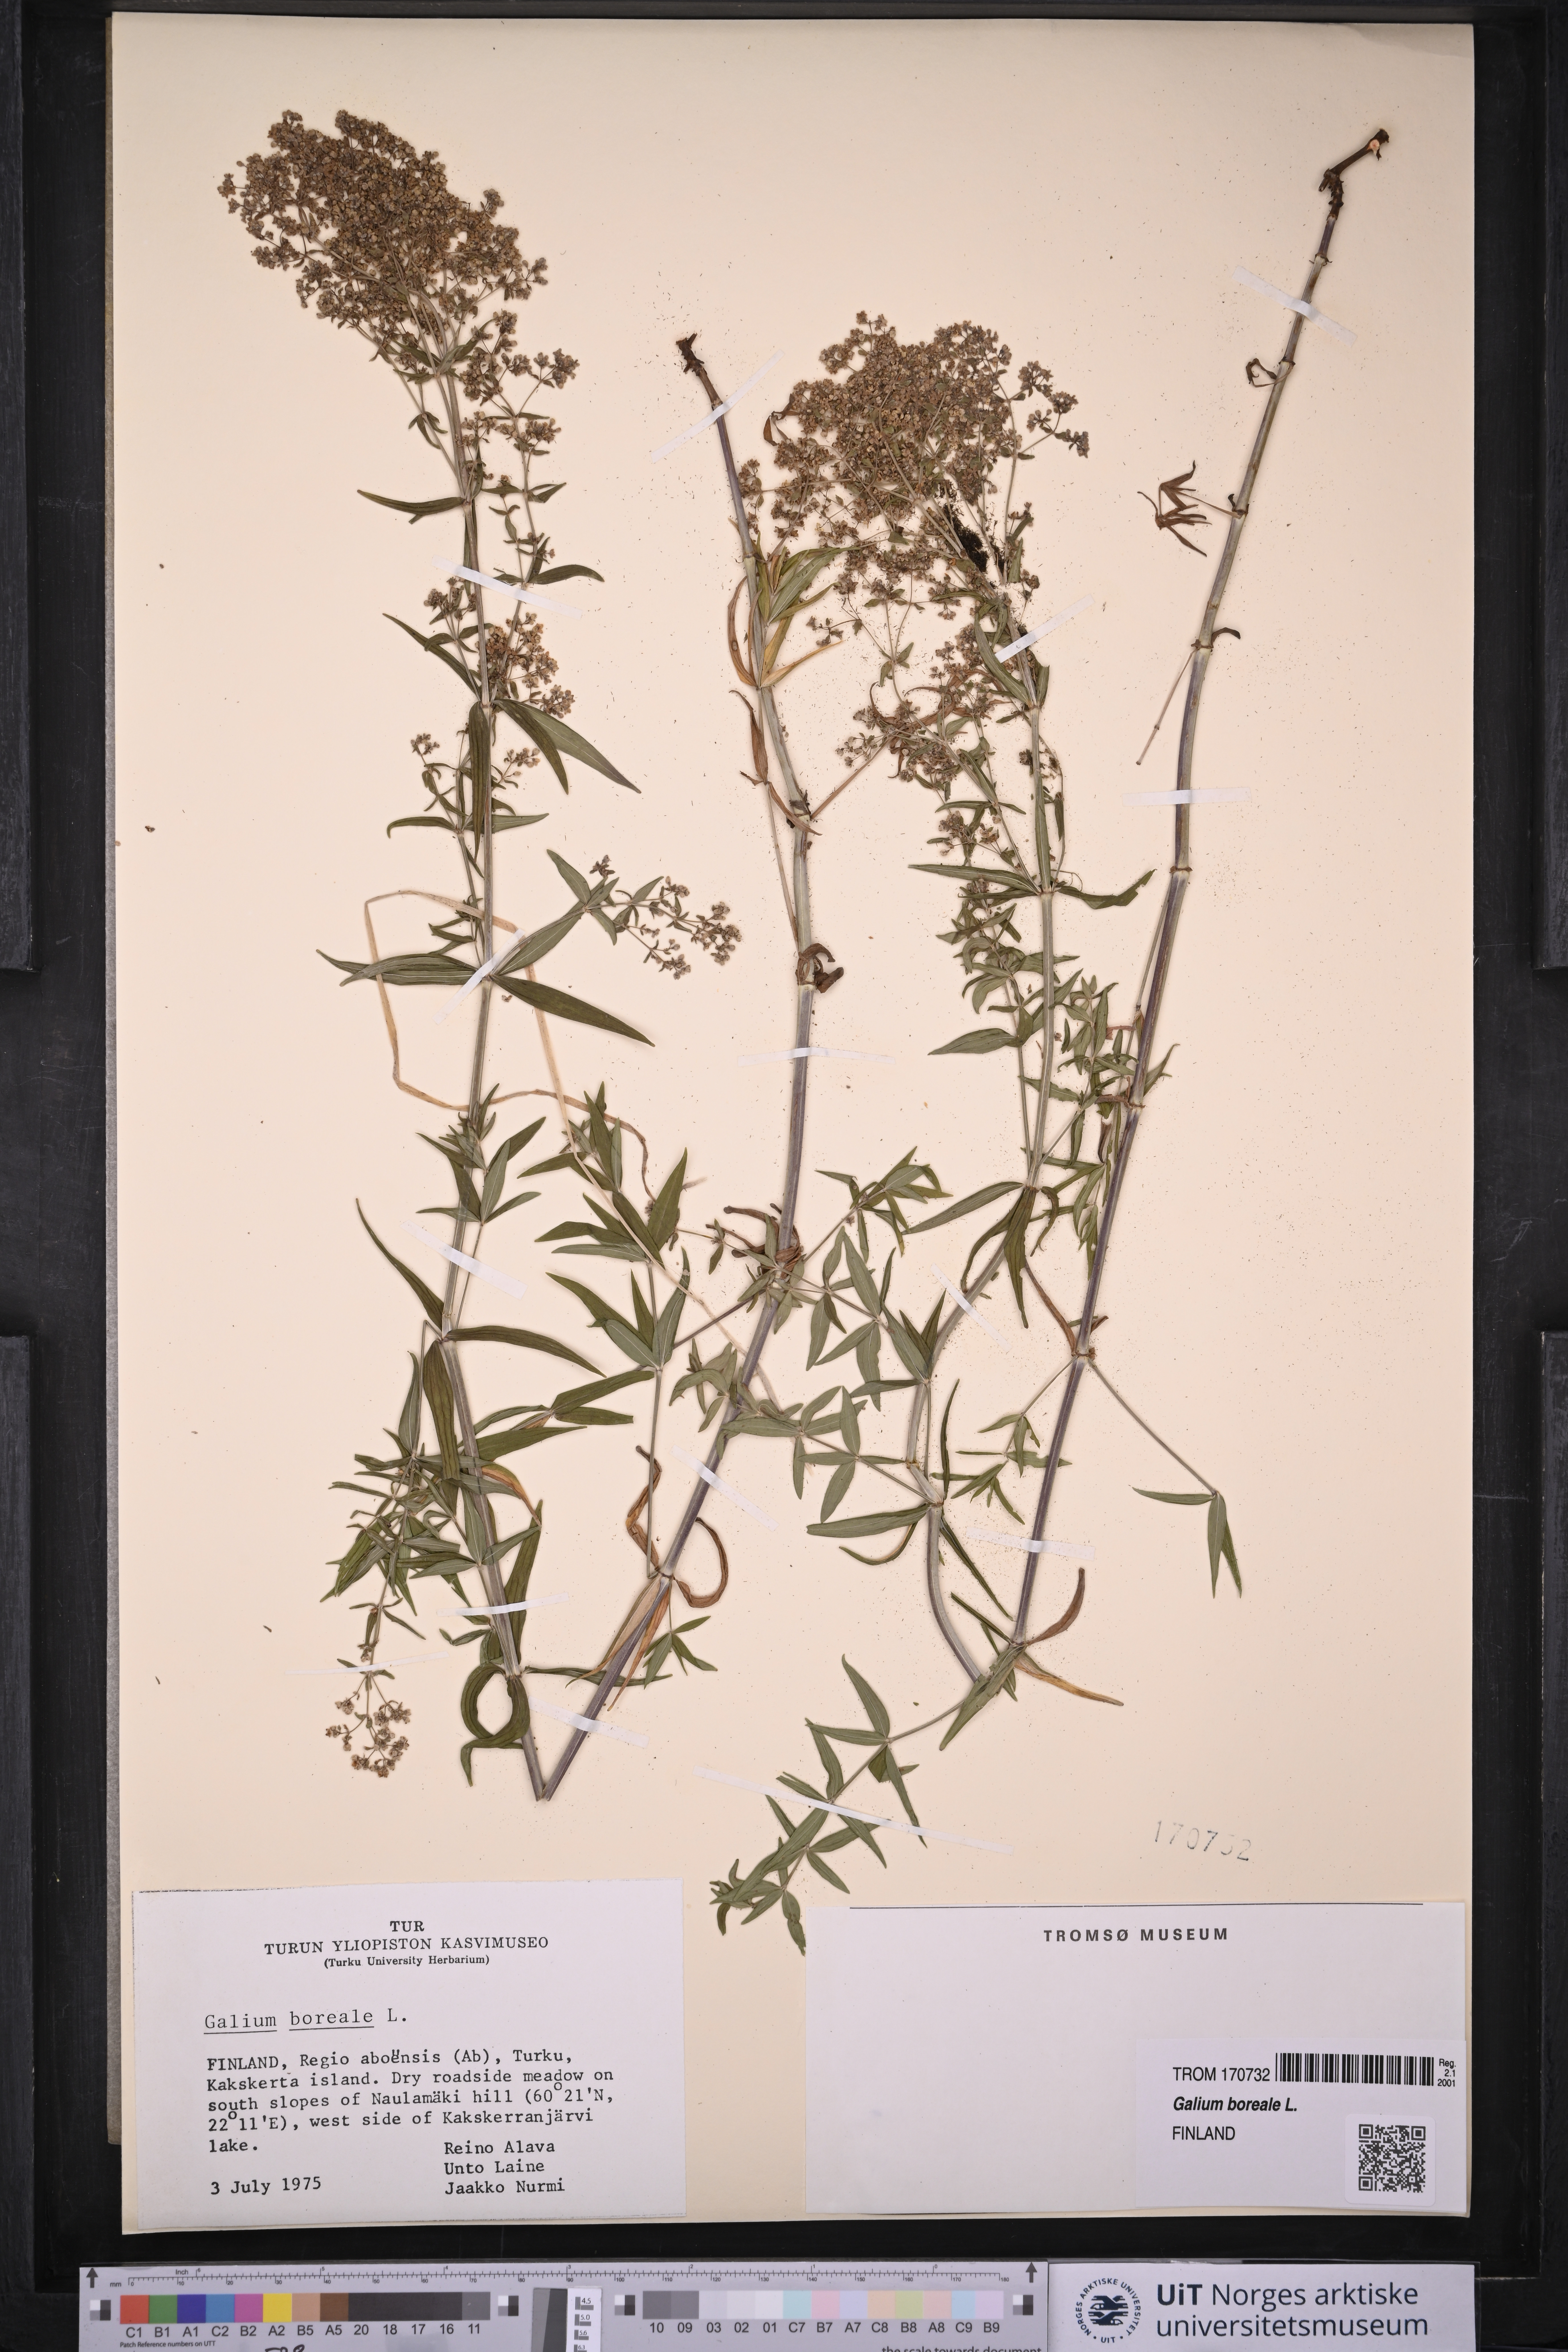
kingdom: Plantae
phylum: Tracheophyta
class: Magnoliopsida
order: Gentianales
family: Rubiaceae
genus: Galium
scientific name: Galium boreale
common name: Northern bedstraw
